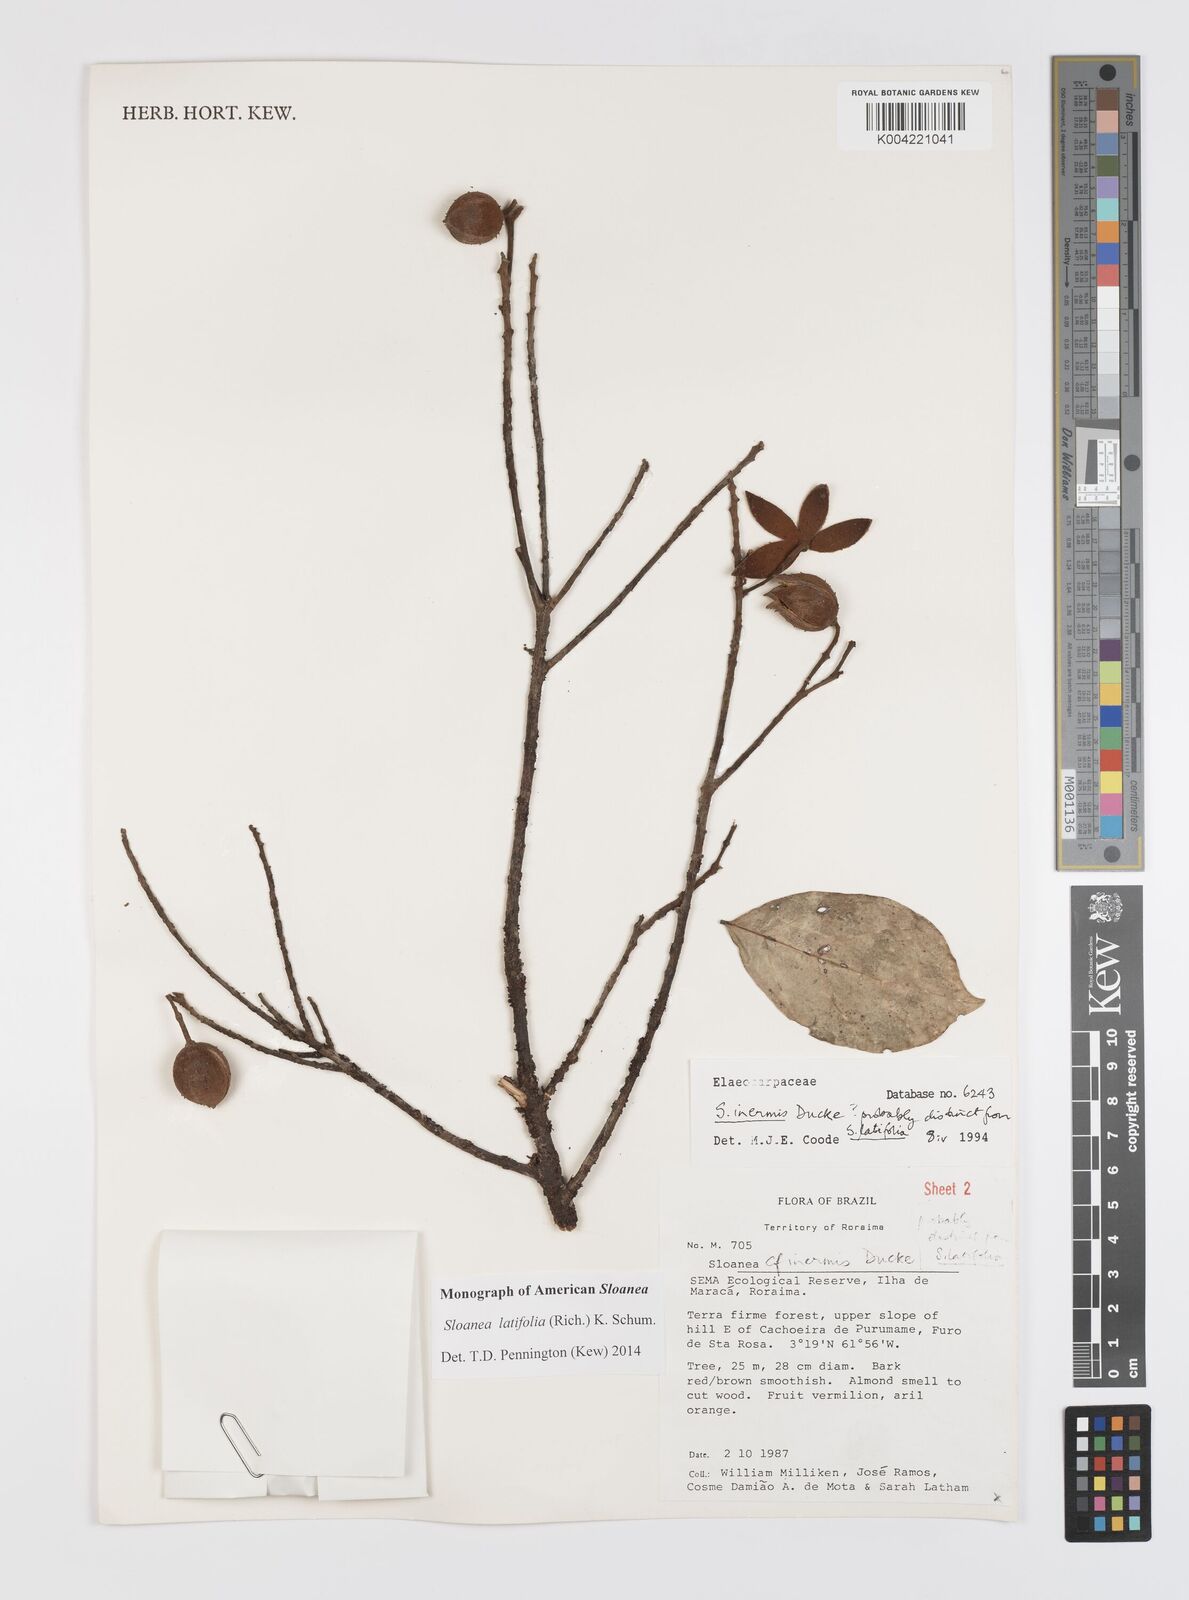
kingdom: Plantae
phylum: Tracheophyta
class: Magnoliopsida
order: Oxalidales
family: Elaeocarpaceae
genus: Sloanea
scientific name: Sloanea latifolia
